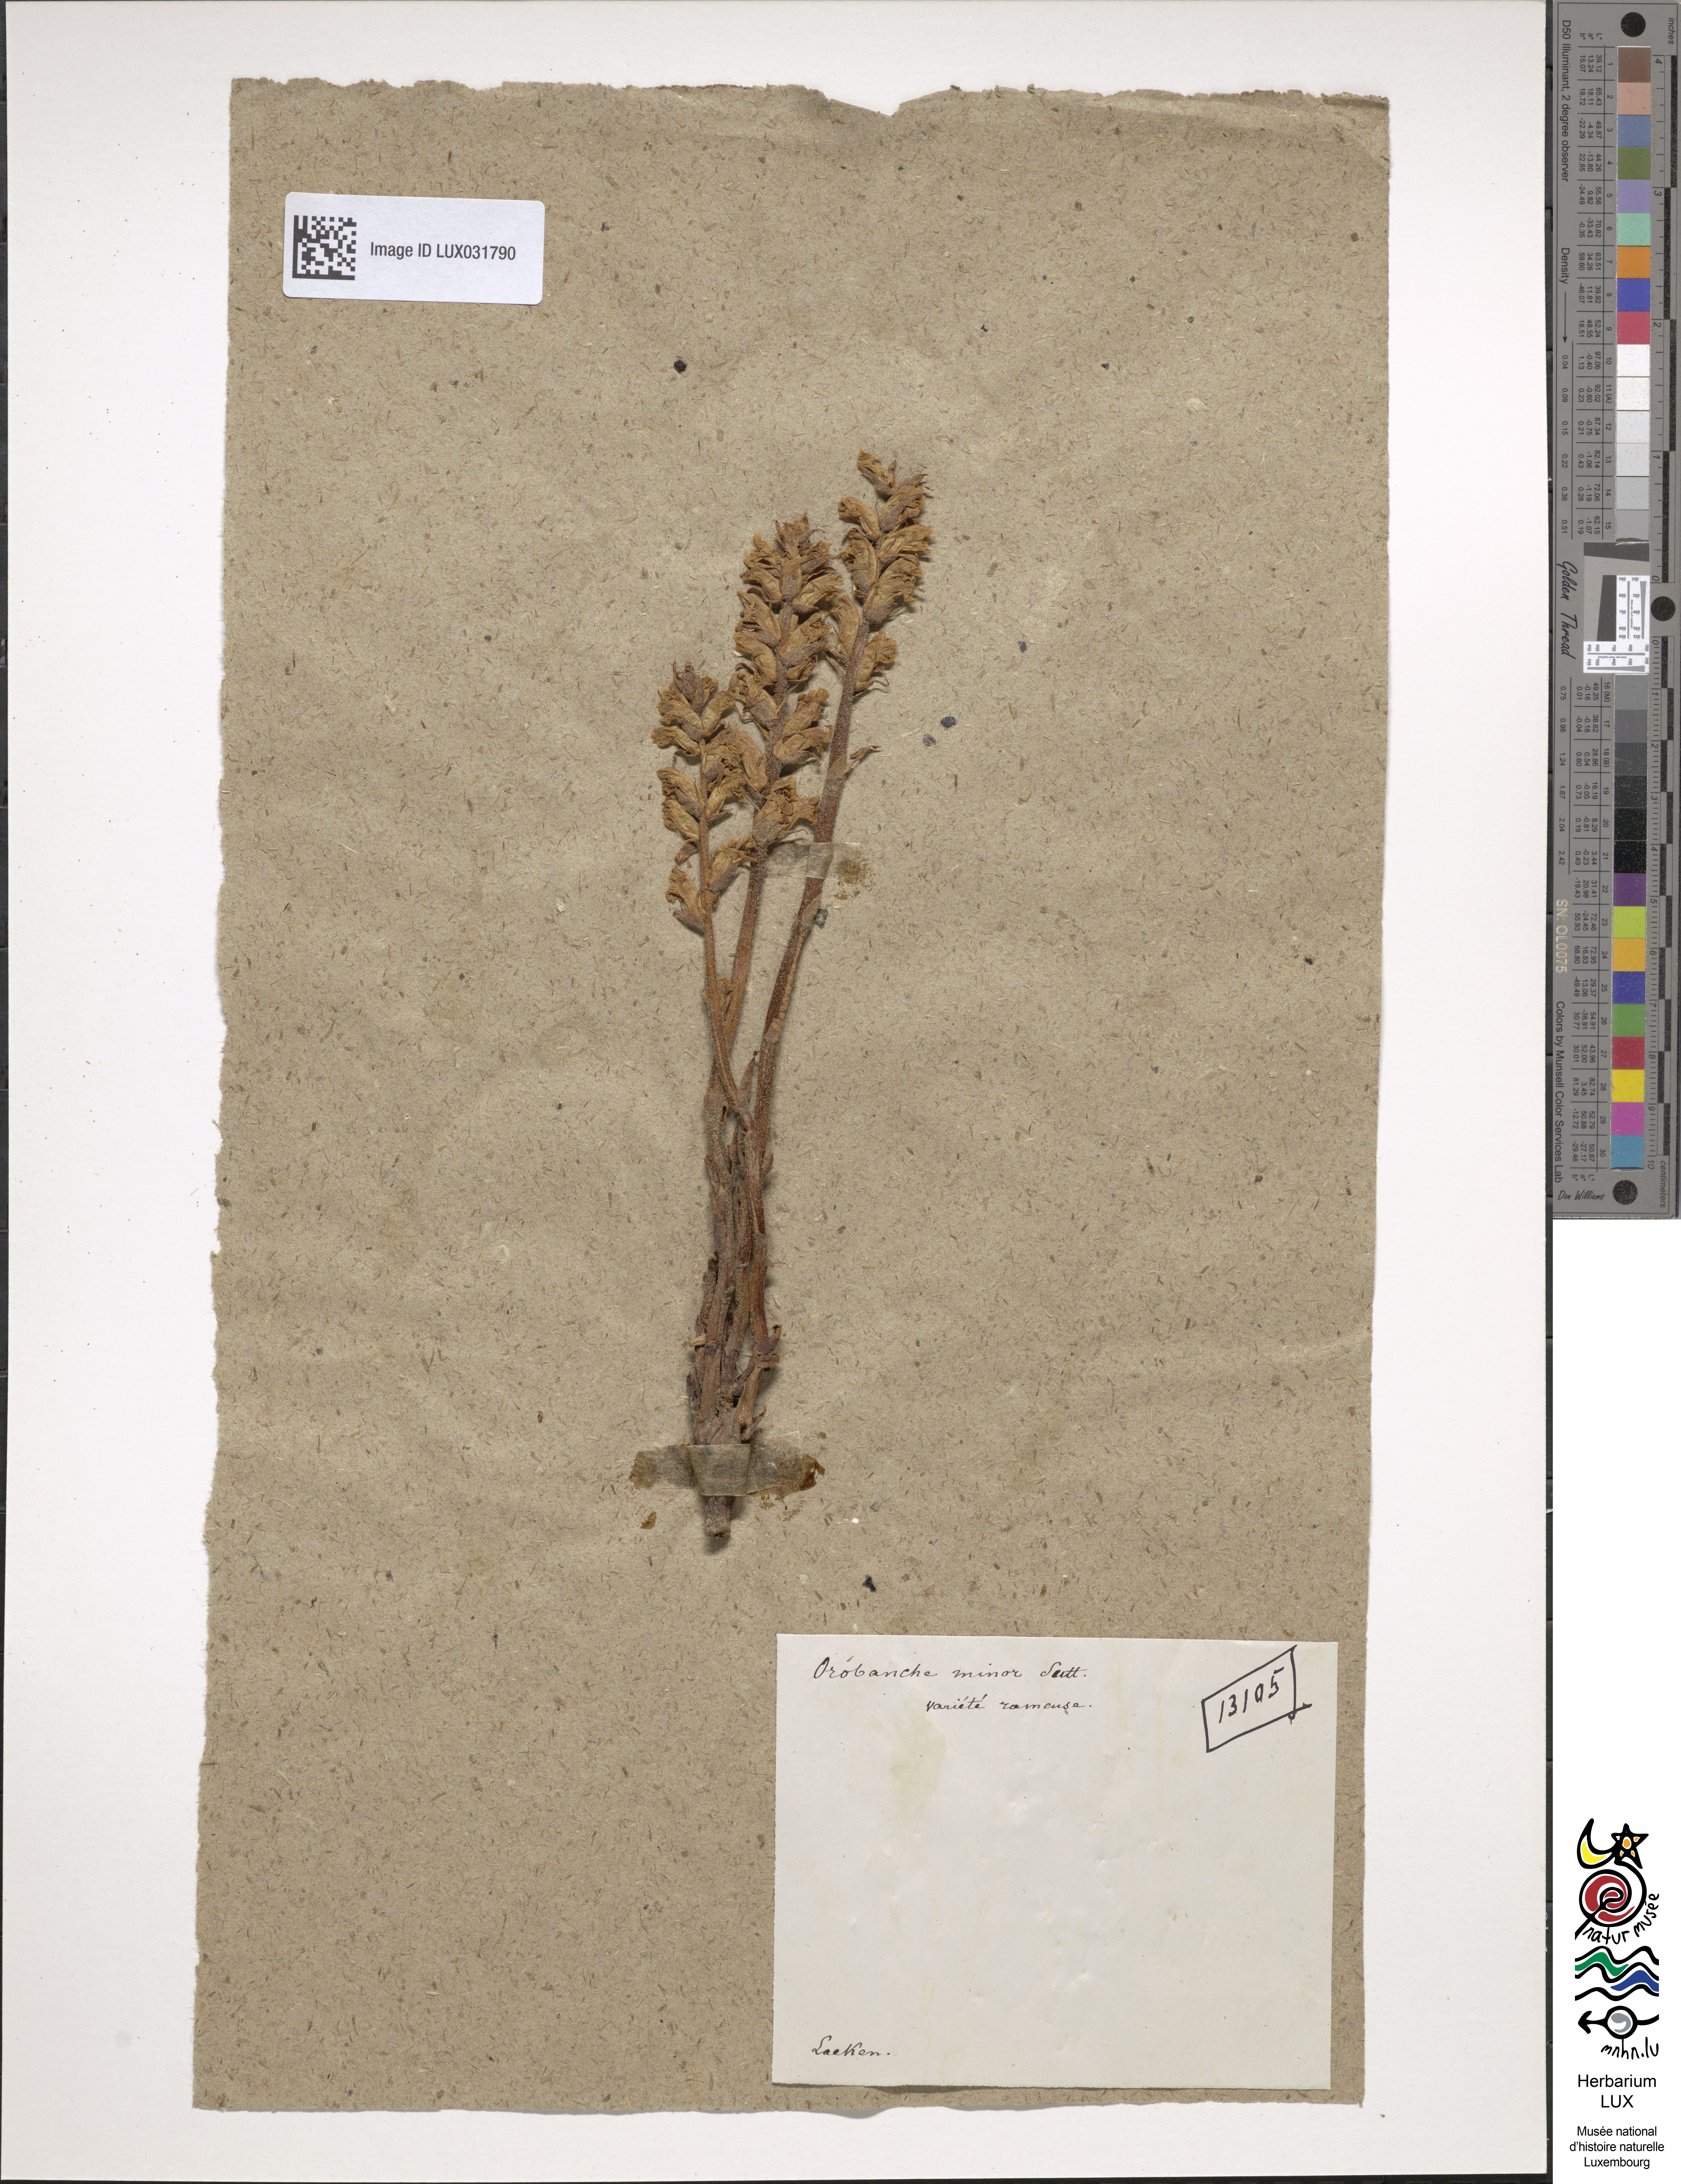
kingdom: Plantae
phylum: Tracheophyta
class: Magnoliopsida
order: Lamiales
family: Orobanchaceae
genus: Orobanche
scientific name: Orobanche minor
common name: Common broomrape
